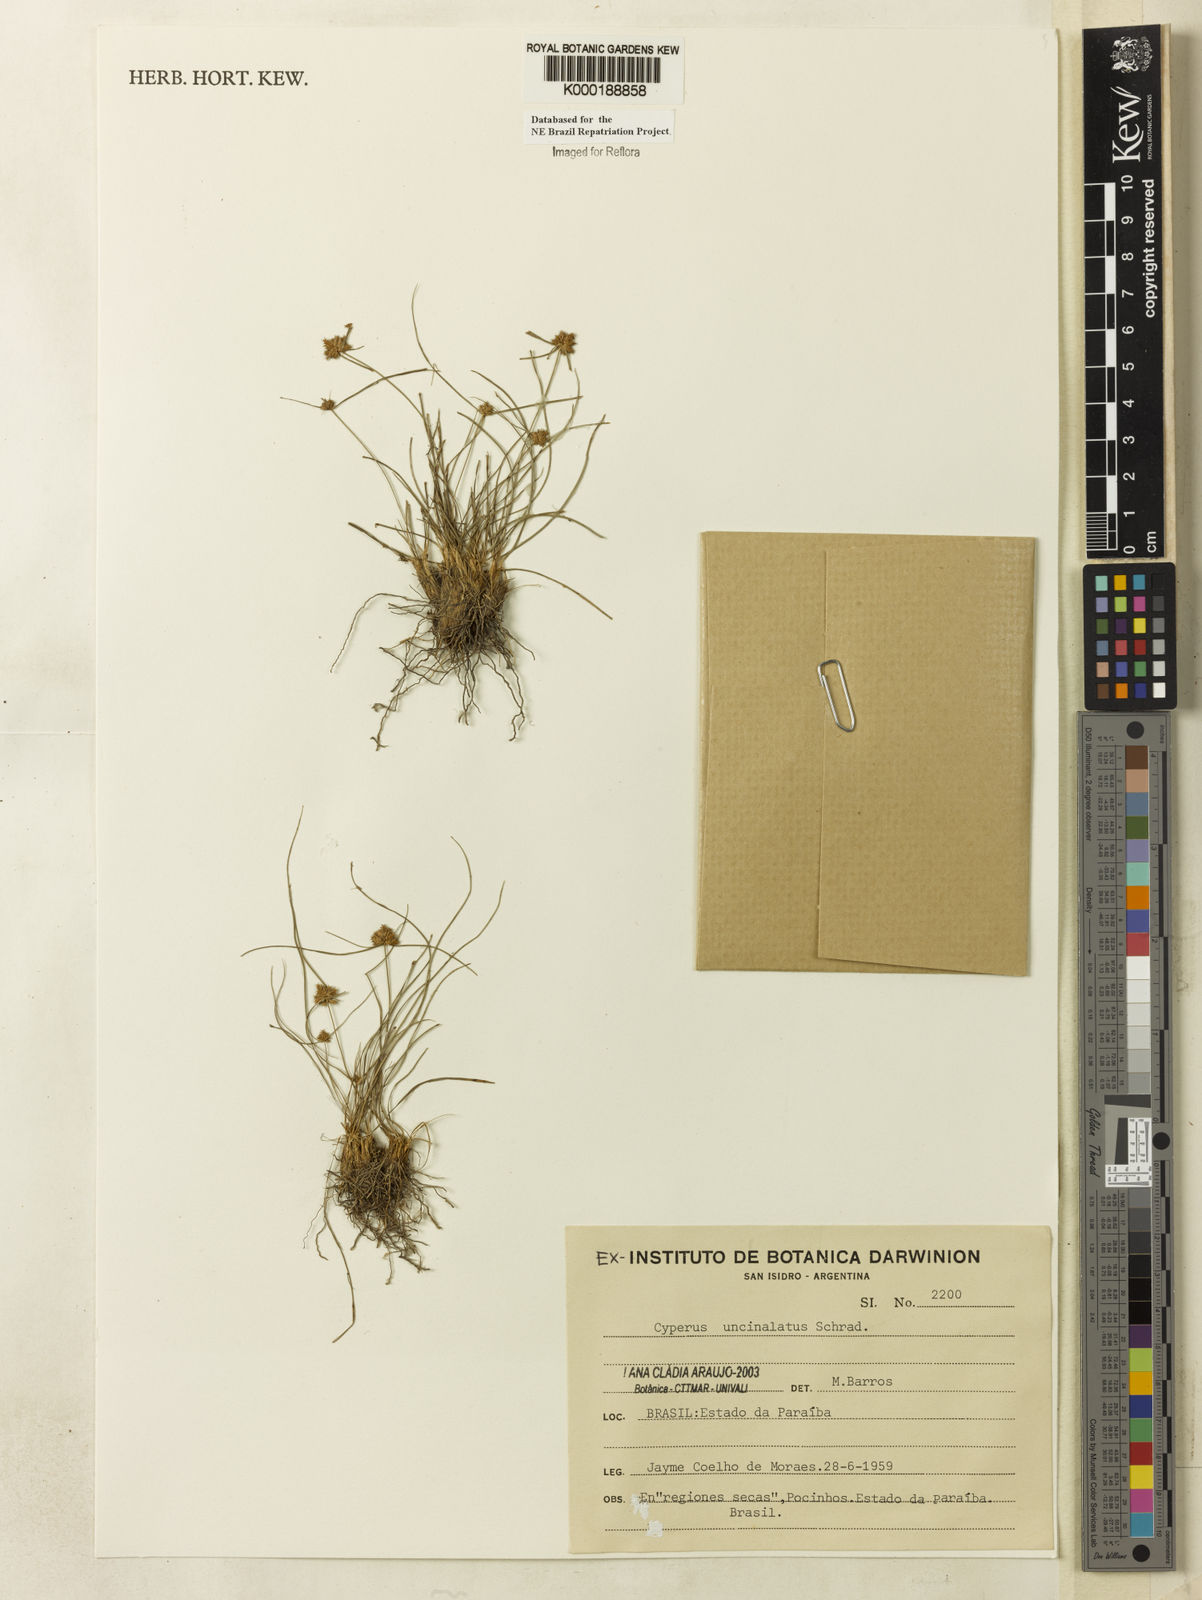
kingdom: Plantae
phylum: Tracheophyta
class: Liliopsida
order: Poales
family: Cyperaceae
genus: Cyperus
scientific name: Cyperus uncinulatus
